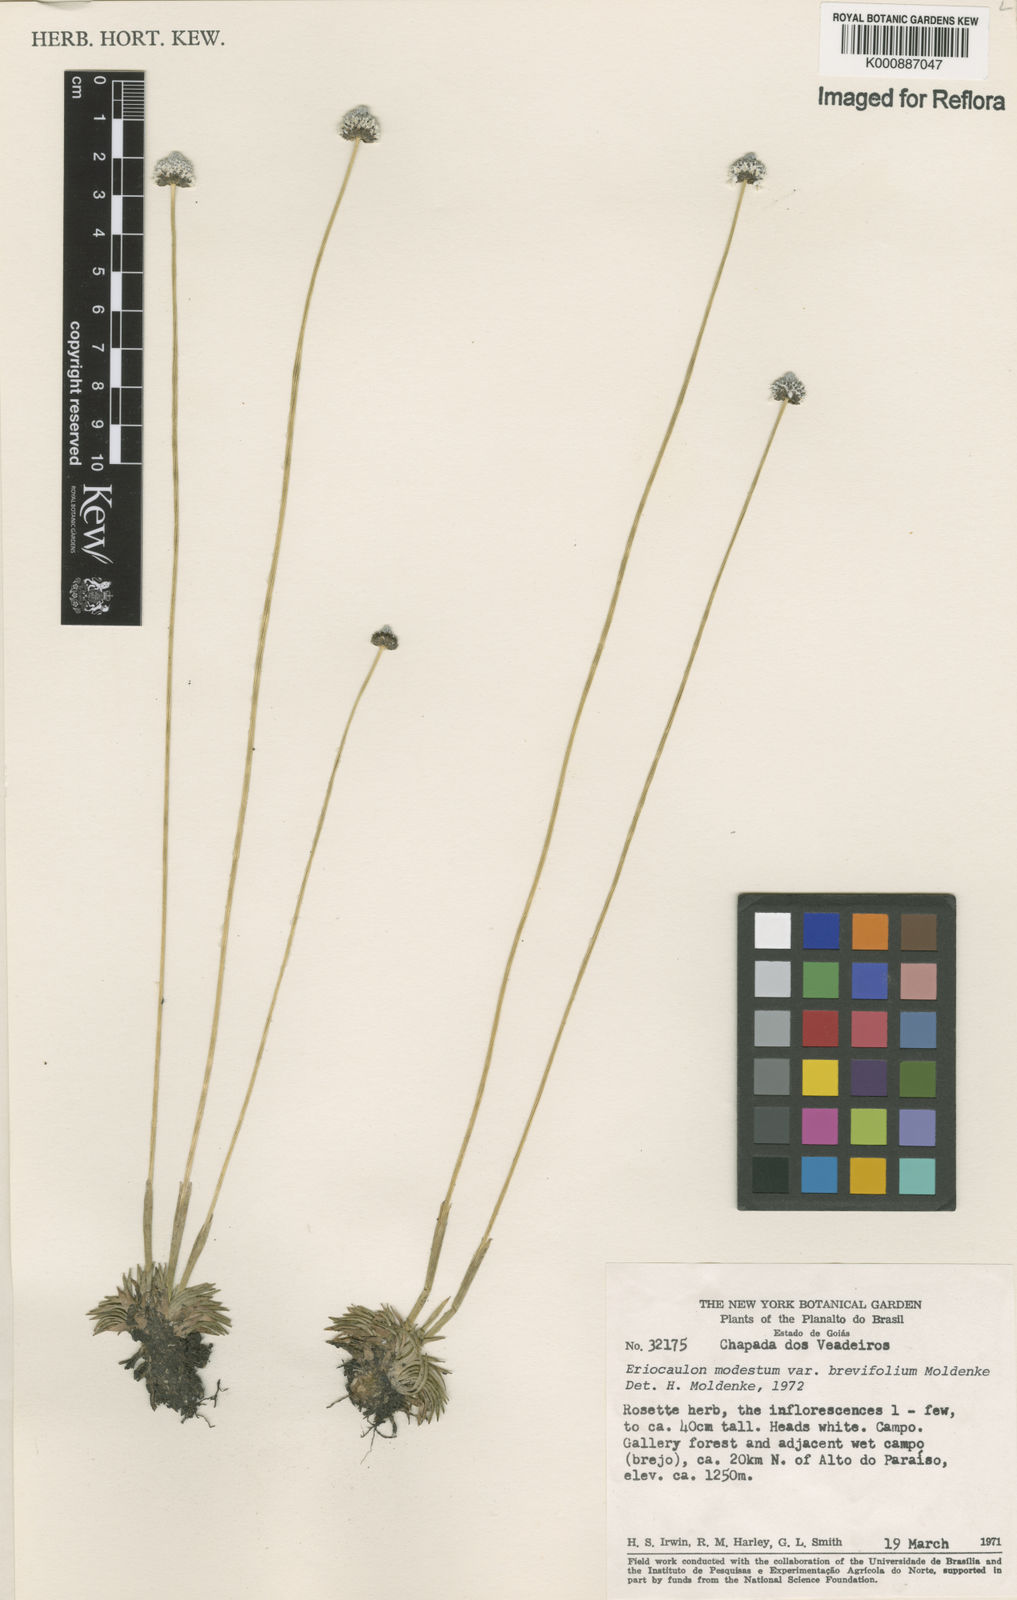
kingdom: Plantae
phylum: Tracheophyta
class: Liliopsida
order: Poales
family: Eriocaulaceae
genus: Eriocaulon
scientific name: Eriocaulon candango
